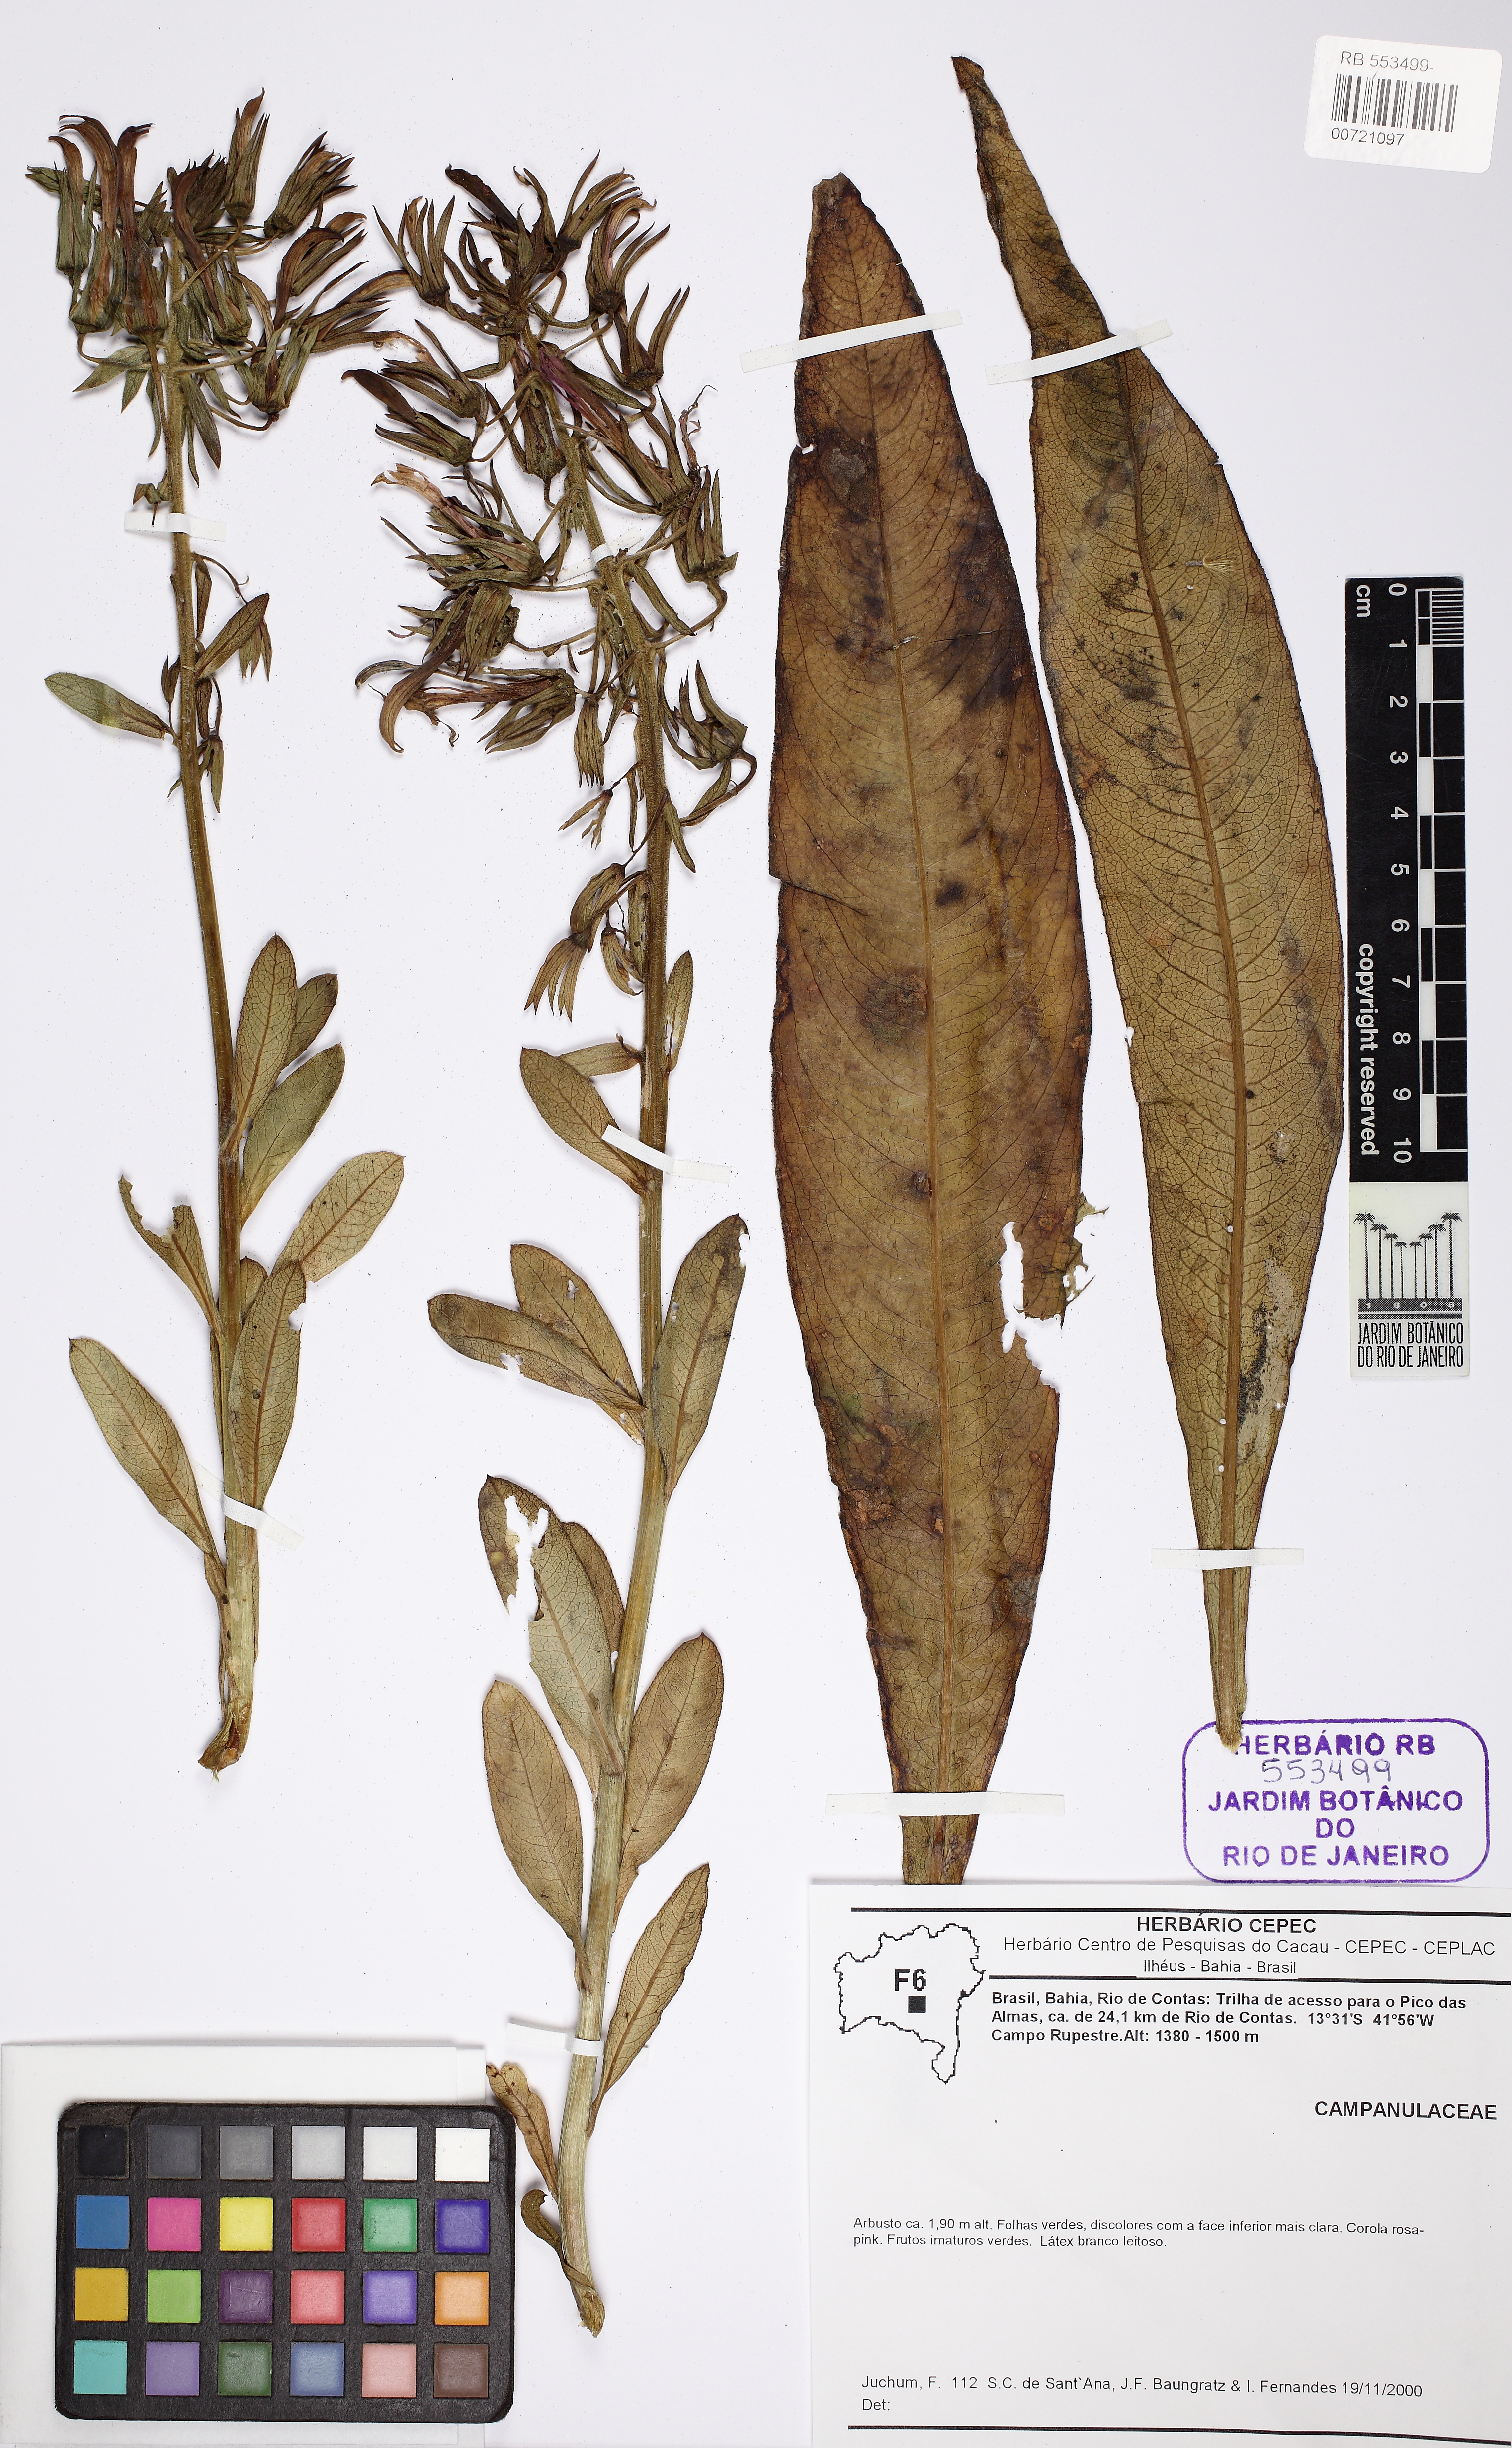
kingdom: Plantae
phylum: Tracheophyta
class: Magnoliopsida
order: Asterales
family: Campanulaceae
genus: Lobelia
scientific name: Lobelia organensis
